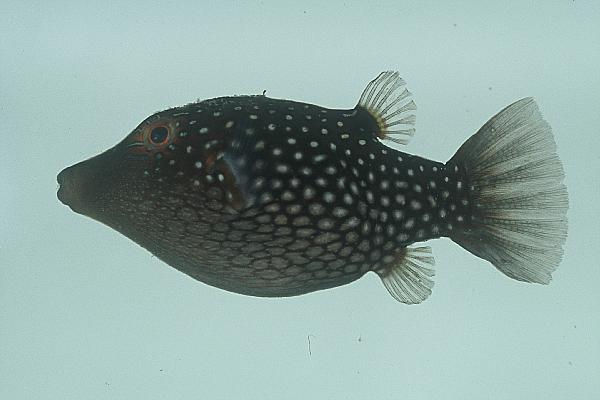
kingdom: Animalia
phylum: Chordata
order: Tetraodontiformes
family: Tetraodontidae
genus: Canthigaster
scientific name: Canthigaster janthinoptera
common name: Honeycomb toby
